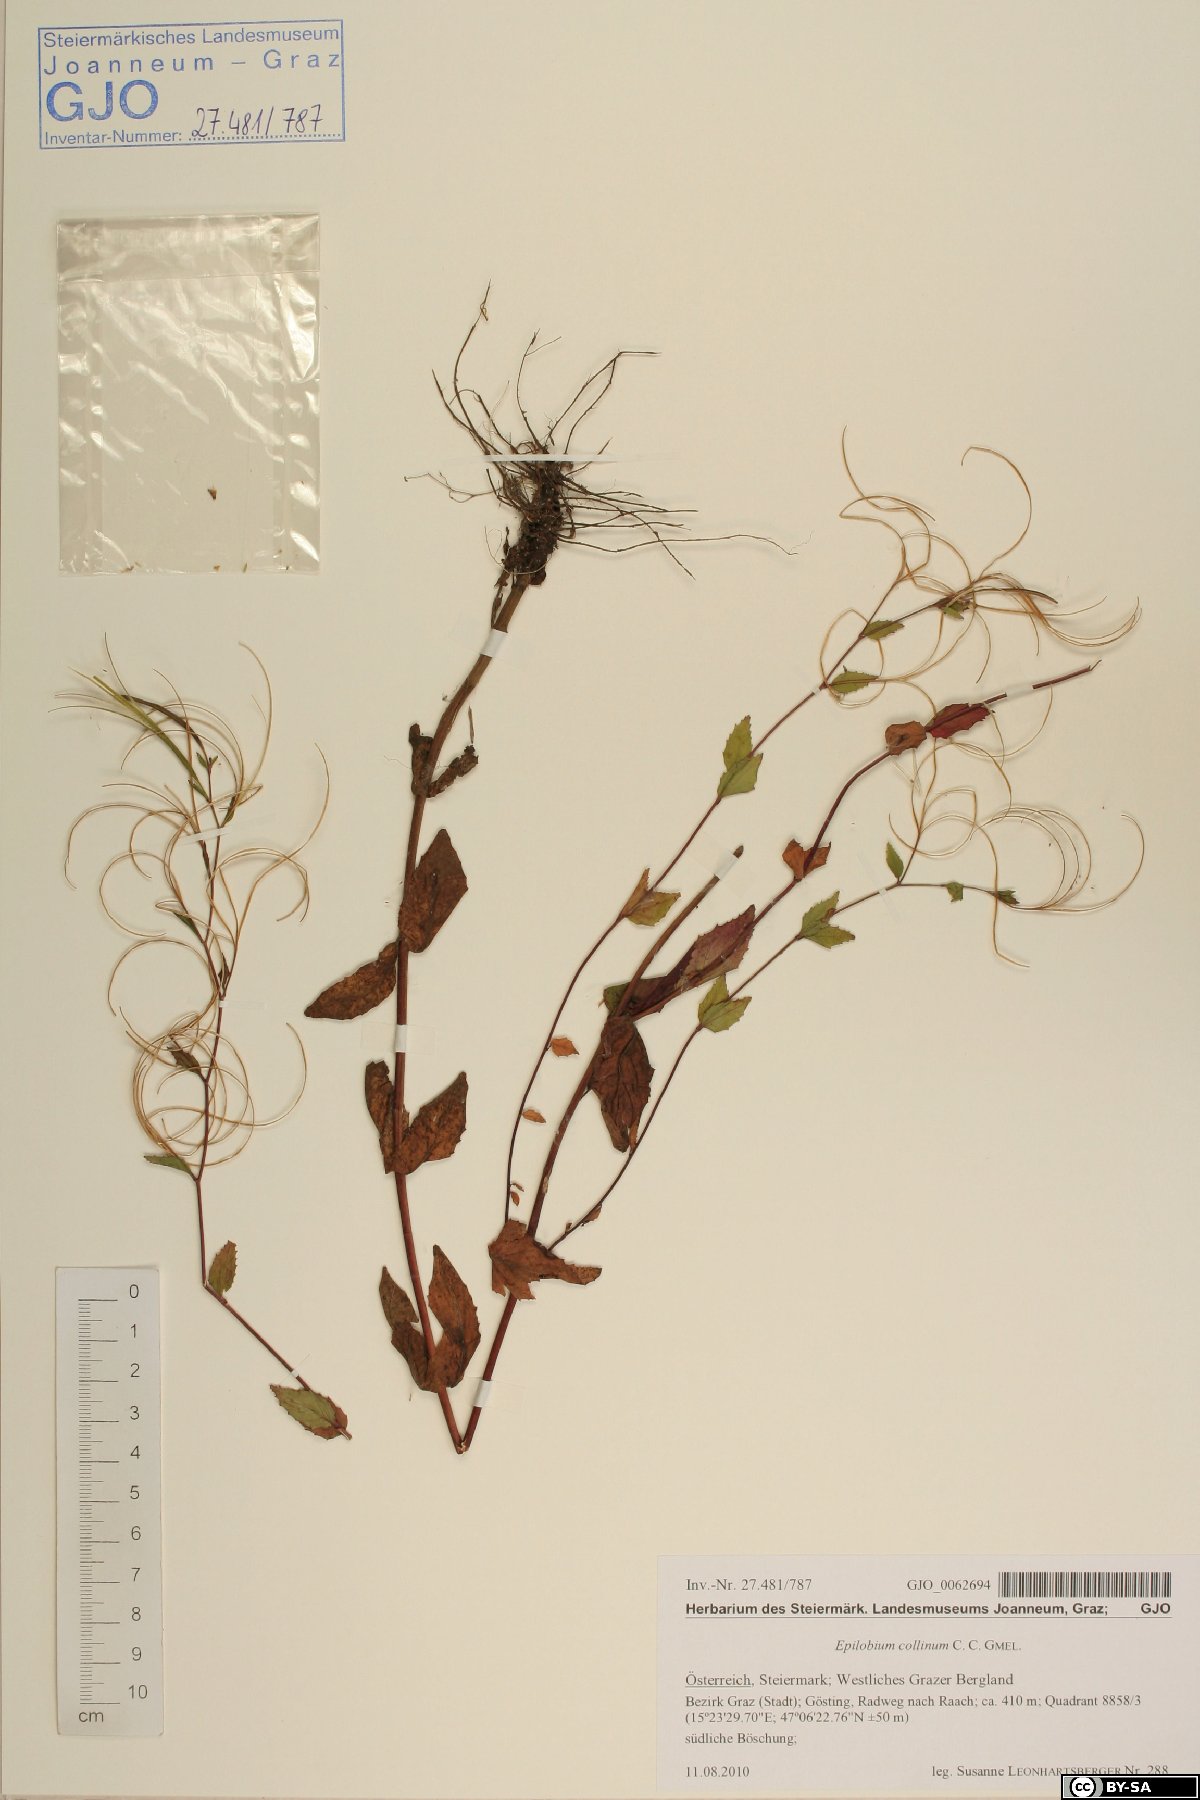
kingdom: Plantae
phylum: Tracheophyta
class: Magnoliopsida
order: Myrtales
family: Onagraceae
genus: Epilobium
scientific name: Epilobium collinum
